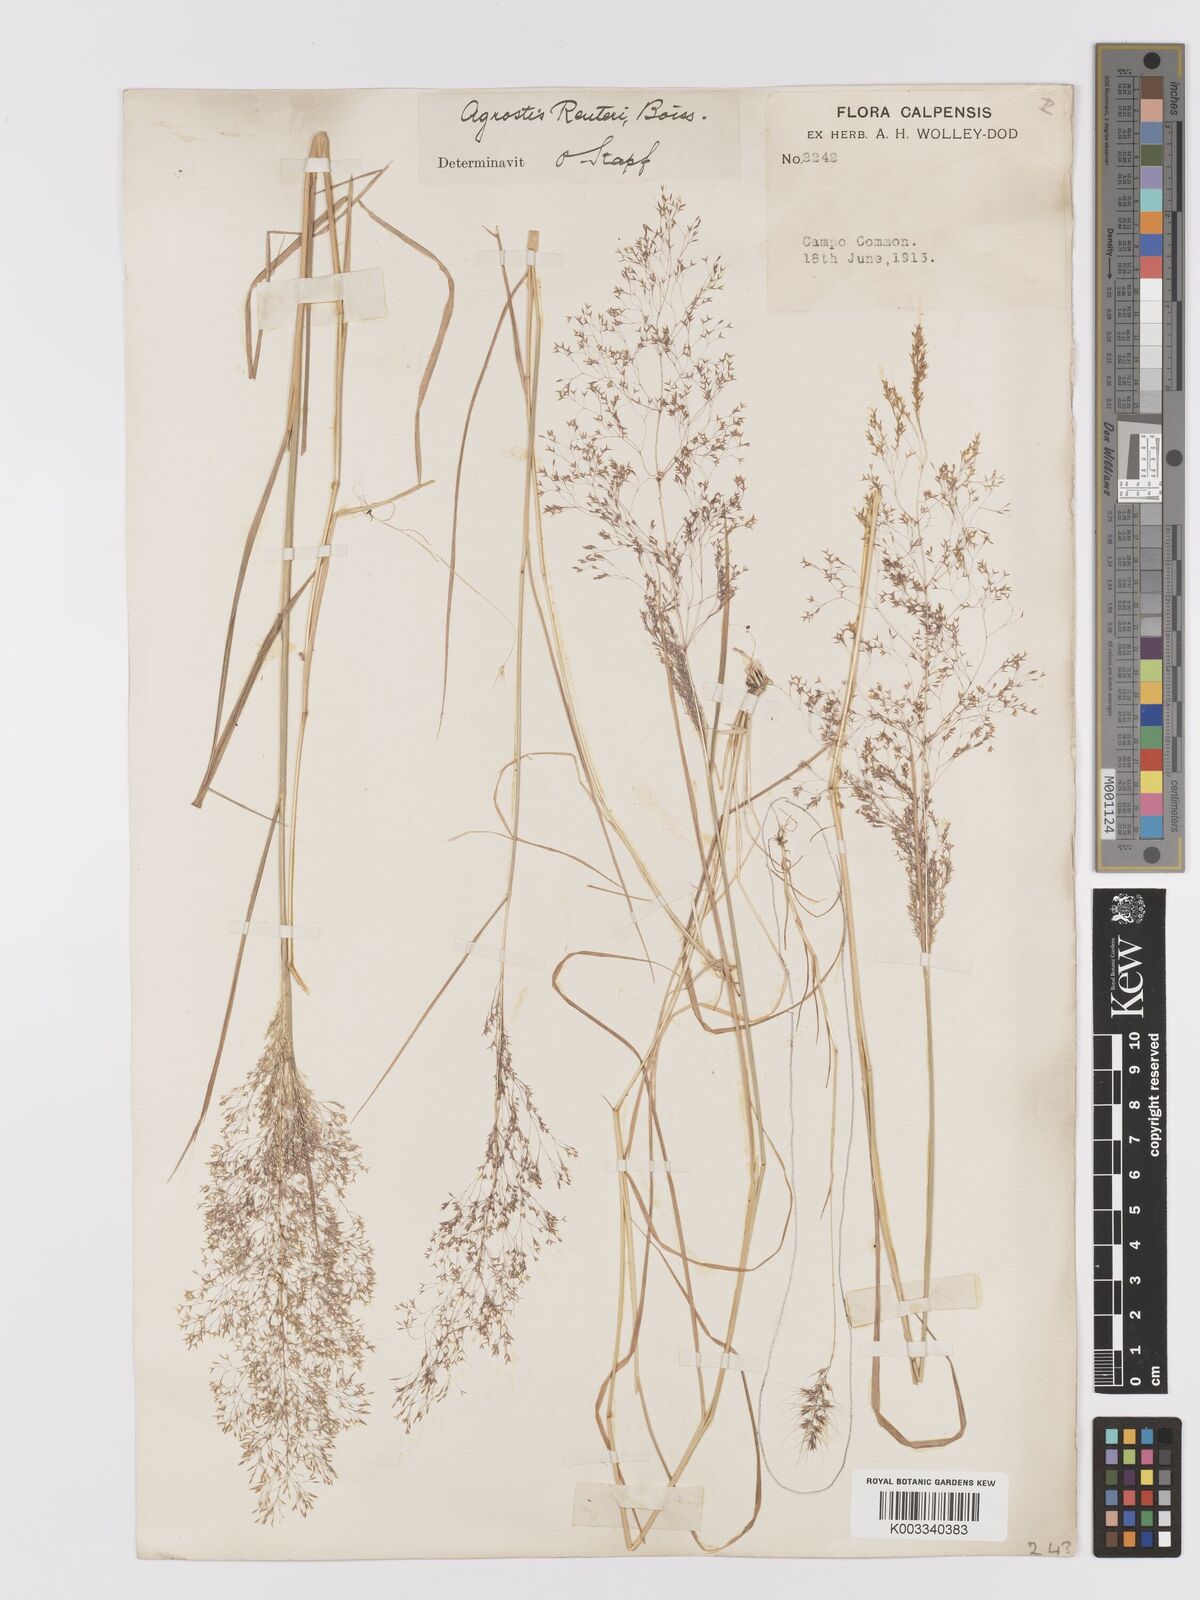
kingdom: Plantae
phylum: Tracheophyta
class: Liliopsida
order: Poales
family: Poaceae
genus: Agrostis
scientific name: Agrostis reuteri
